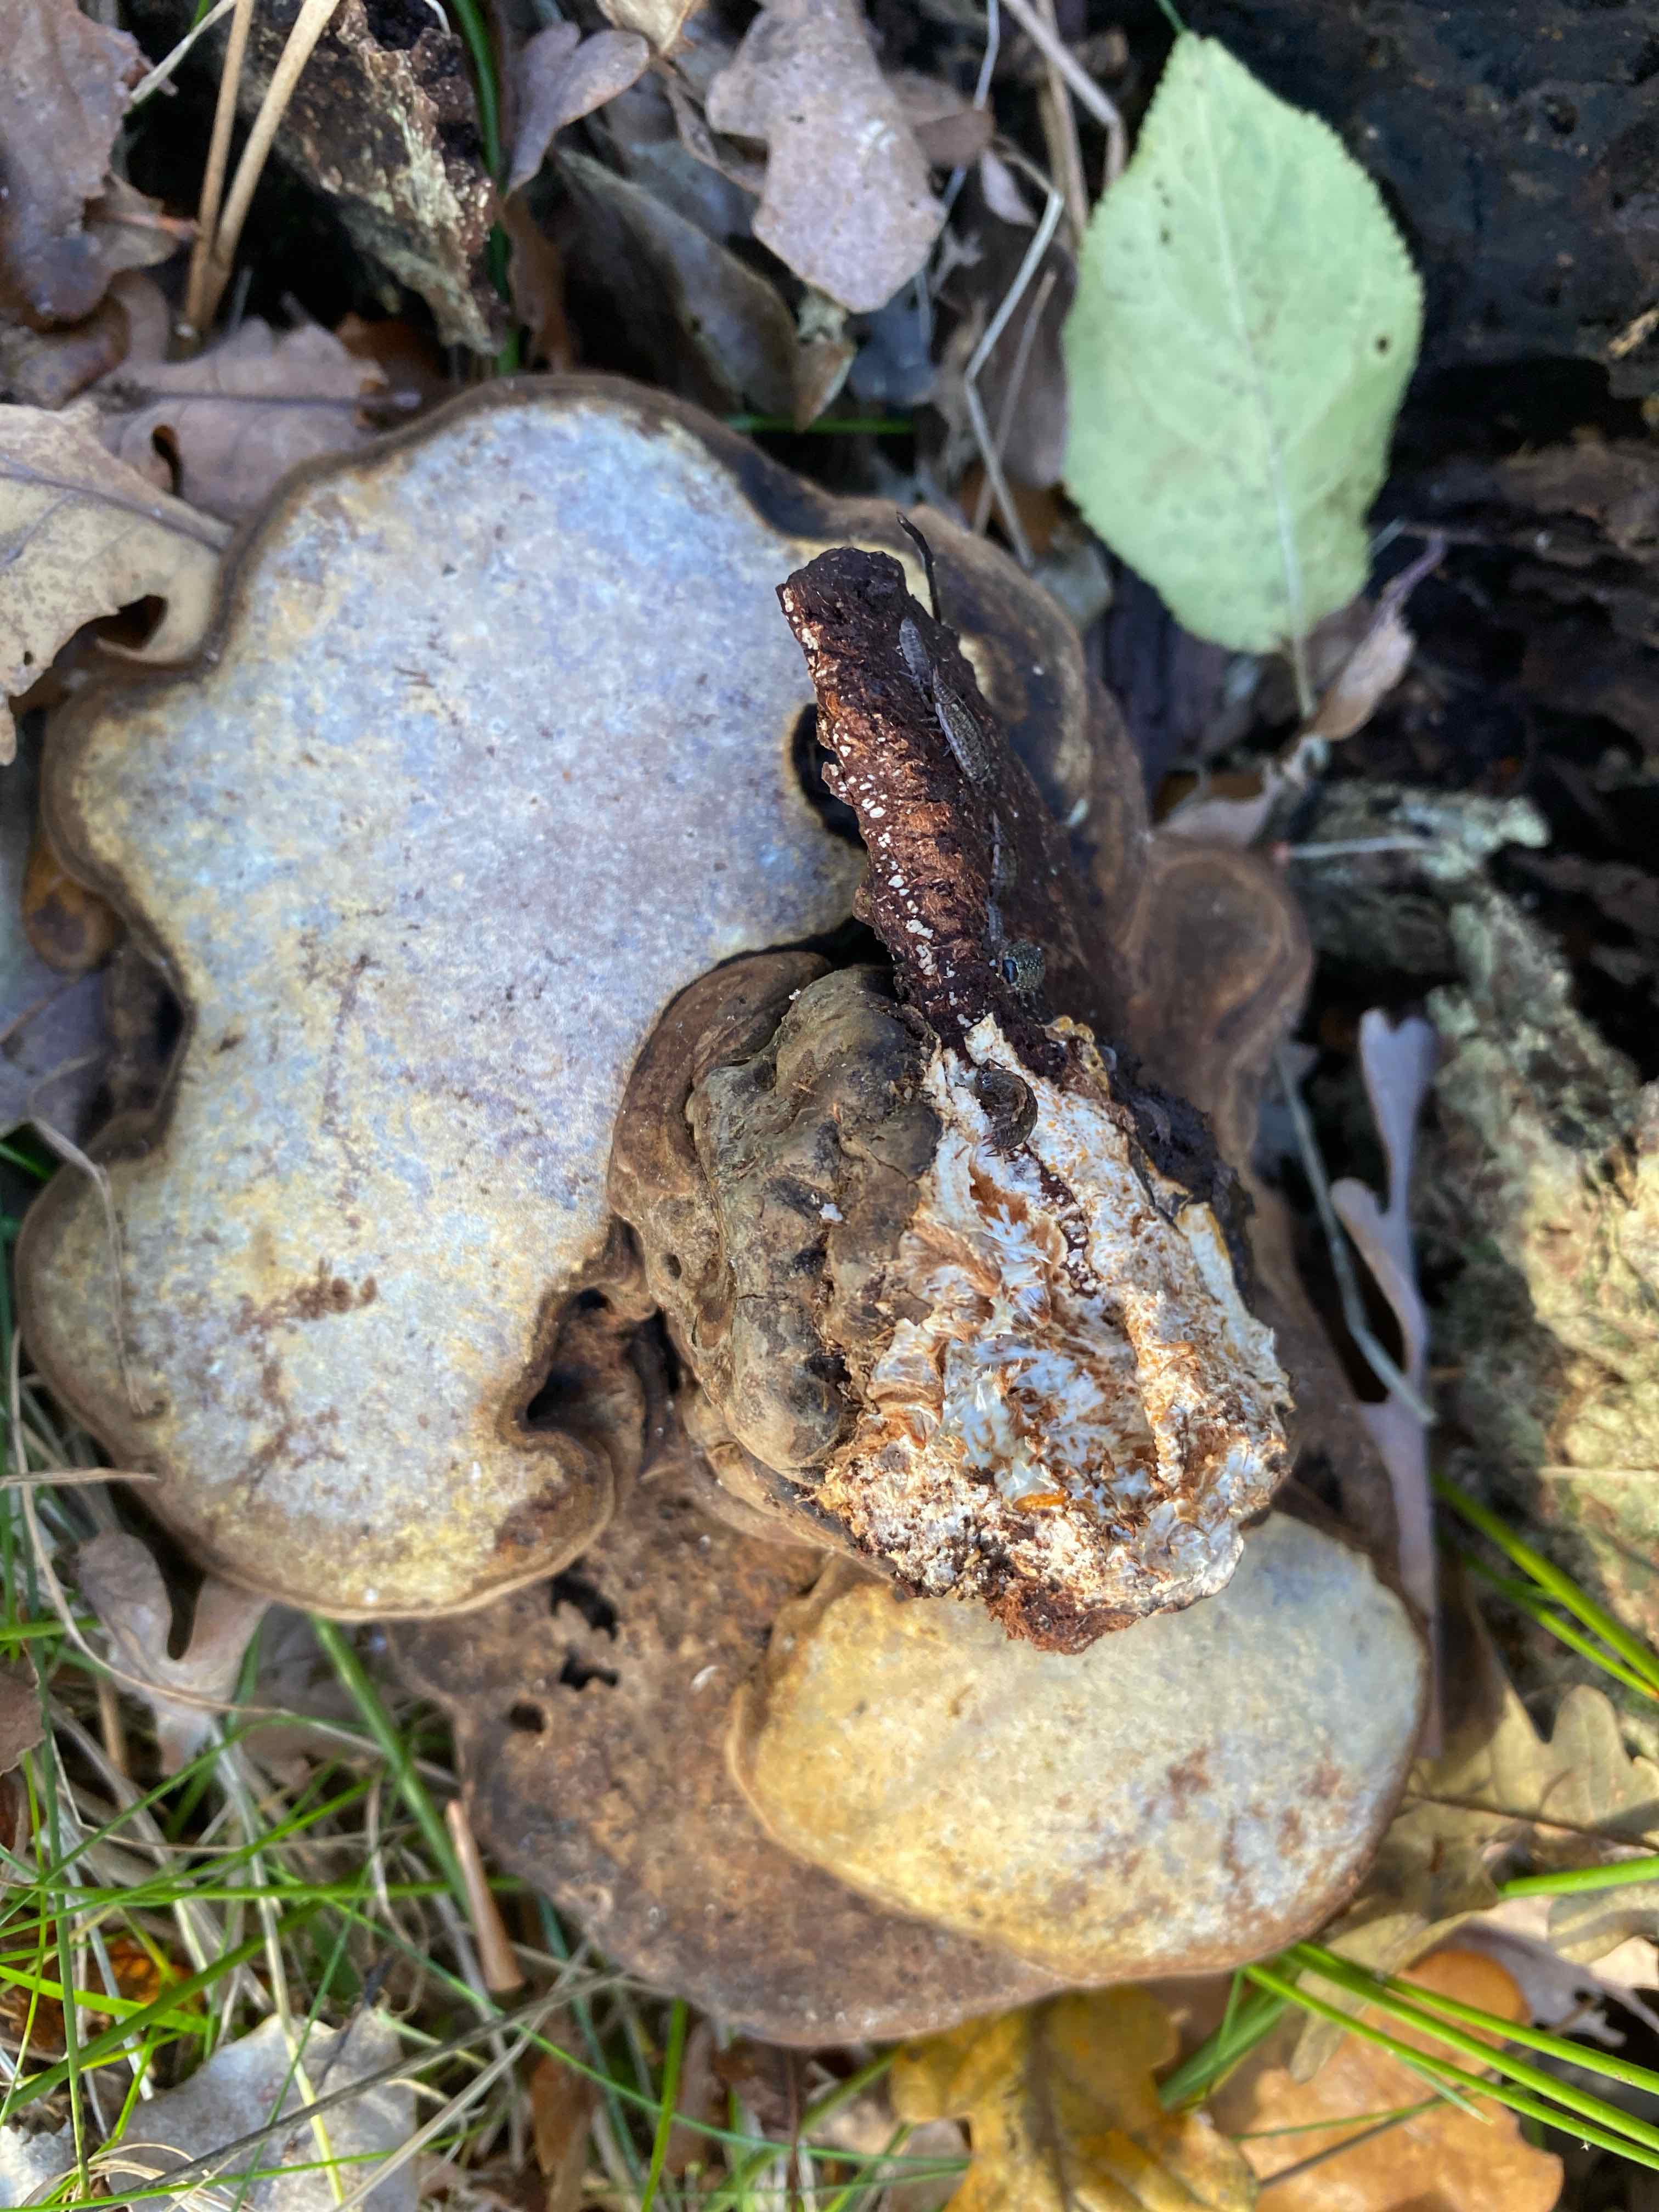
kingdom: Fungi
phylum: Basidiomycota
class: Agaricomycetes
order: Polyporales
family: Polyporaceae
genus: Ganoderma
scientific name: Ganoderma applanatum
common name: flad lakporesvamp
